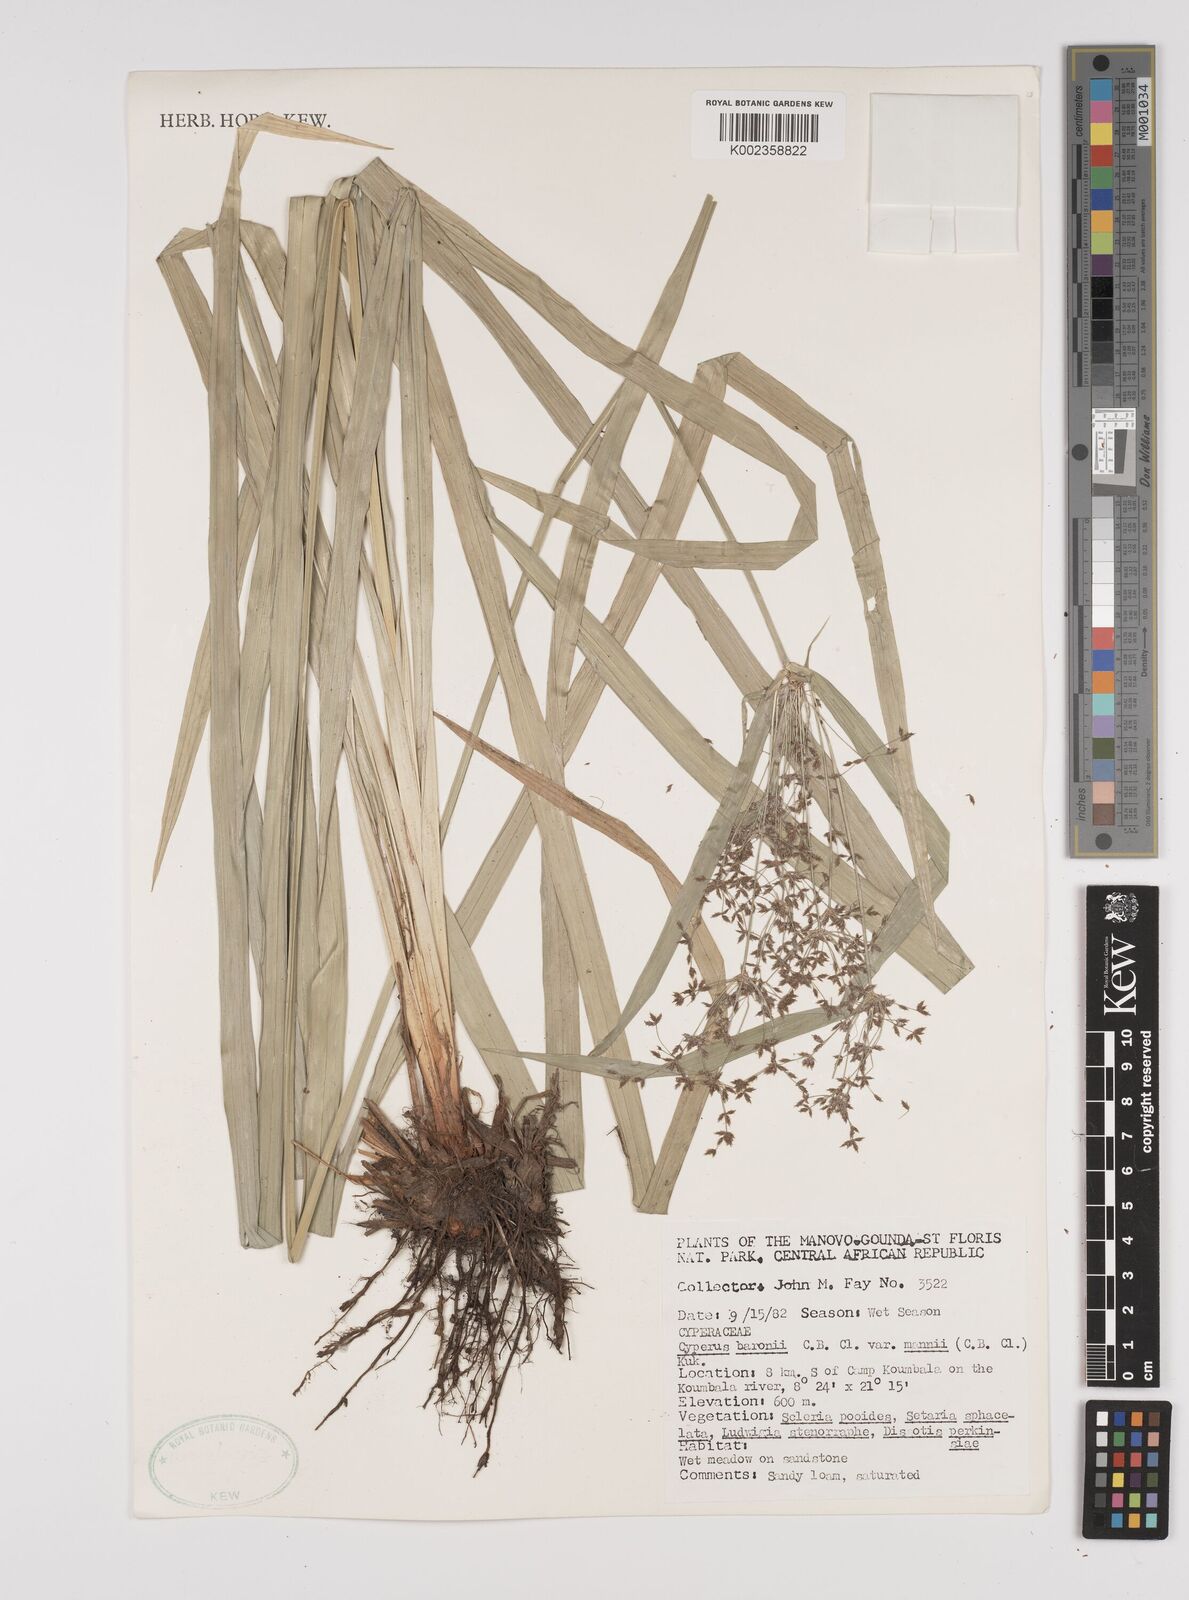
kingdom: Plantae
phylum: Tracheophyta
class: Liliopsida
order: Poales
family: Cyperaceae
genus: Cyperus
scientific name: Cyperus baronii
